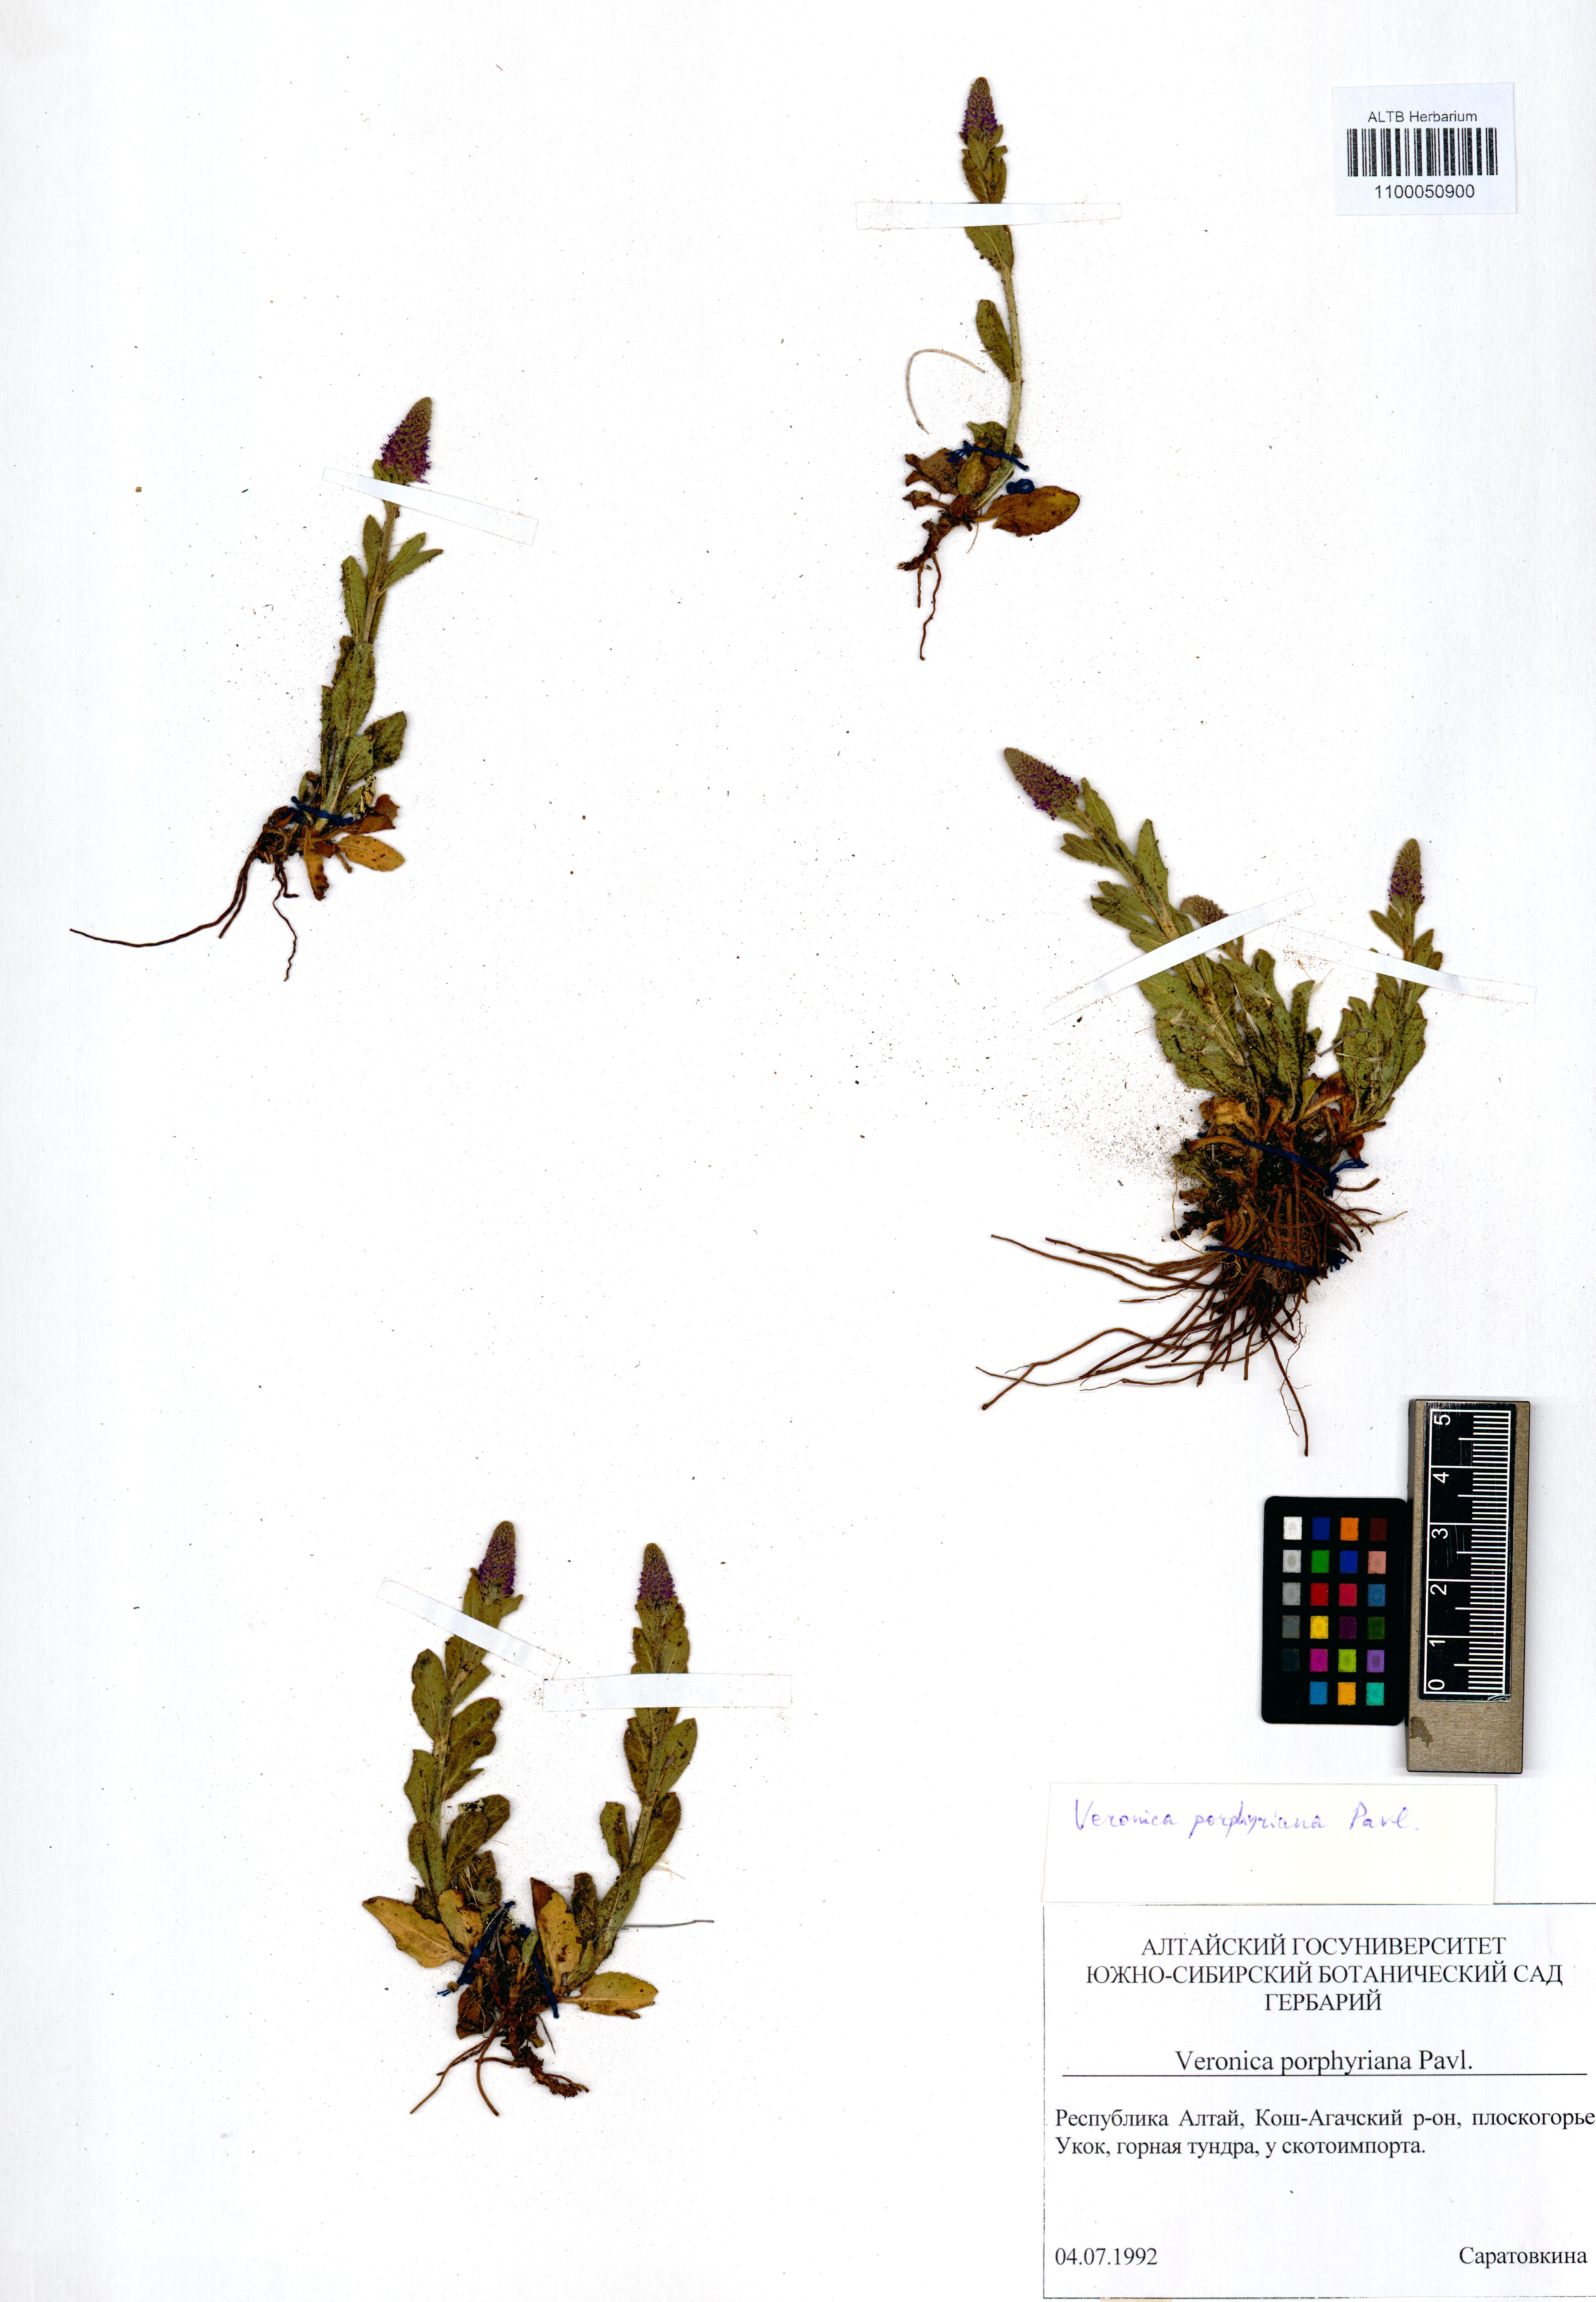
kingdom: Plantae
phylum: Tracheophyta
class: Magnoliopsida
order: Lamiales
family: Plantaginaceae
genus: Veronica
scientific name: Veronica porphyriana
